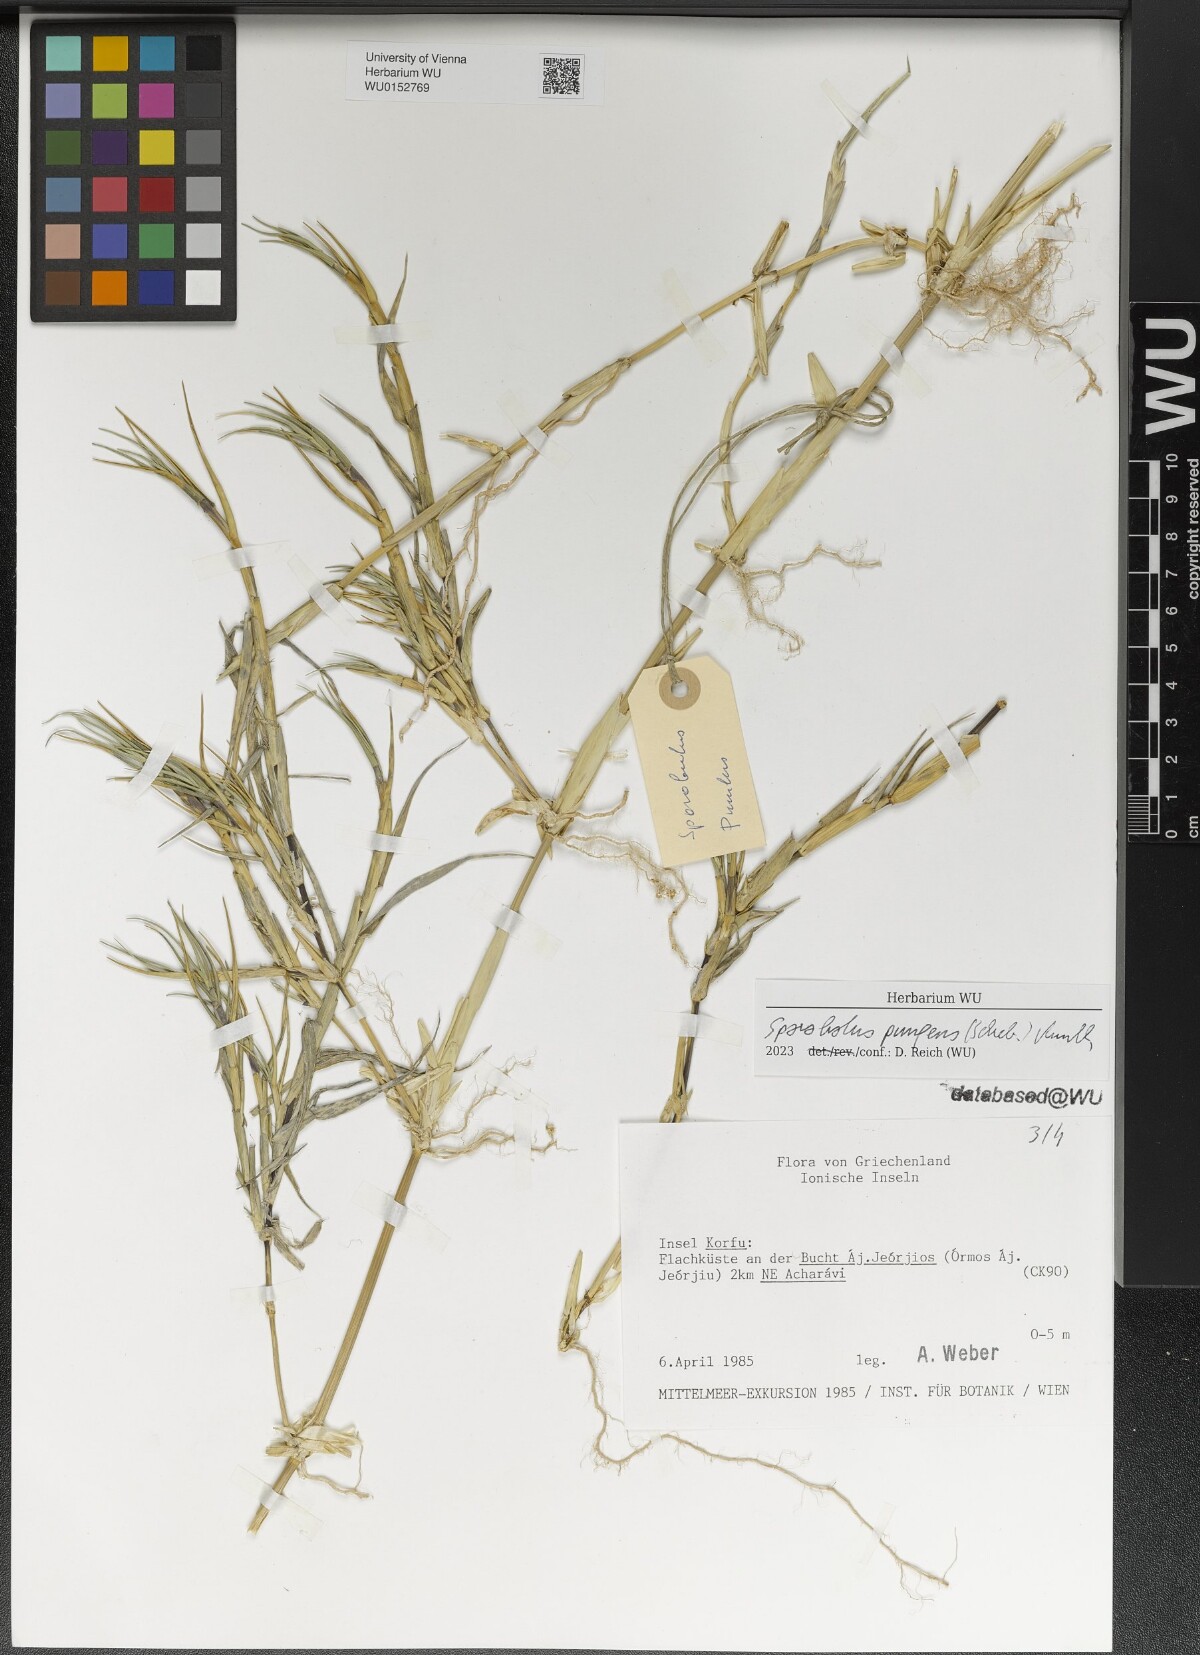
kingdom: Plantae
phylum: Tracheophyta
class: Liliopsida
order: Poales
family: Poaceae
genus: Sporobolus
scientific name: Sporobolus pungens
